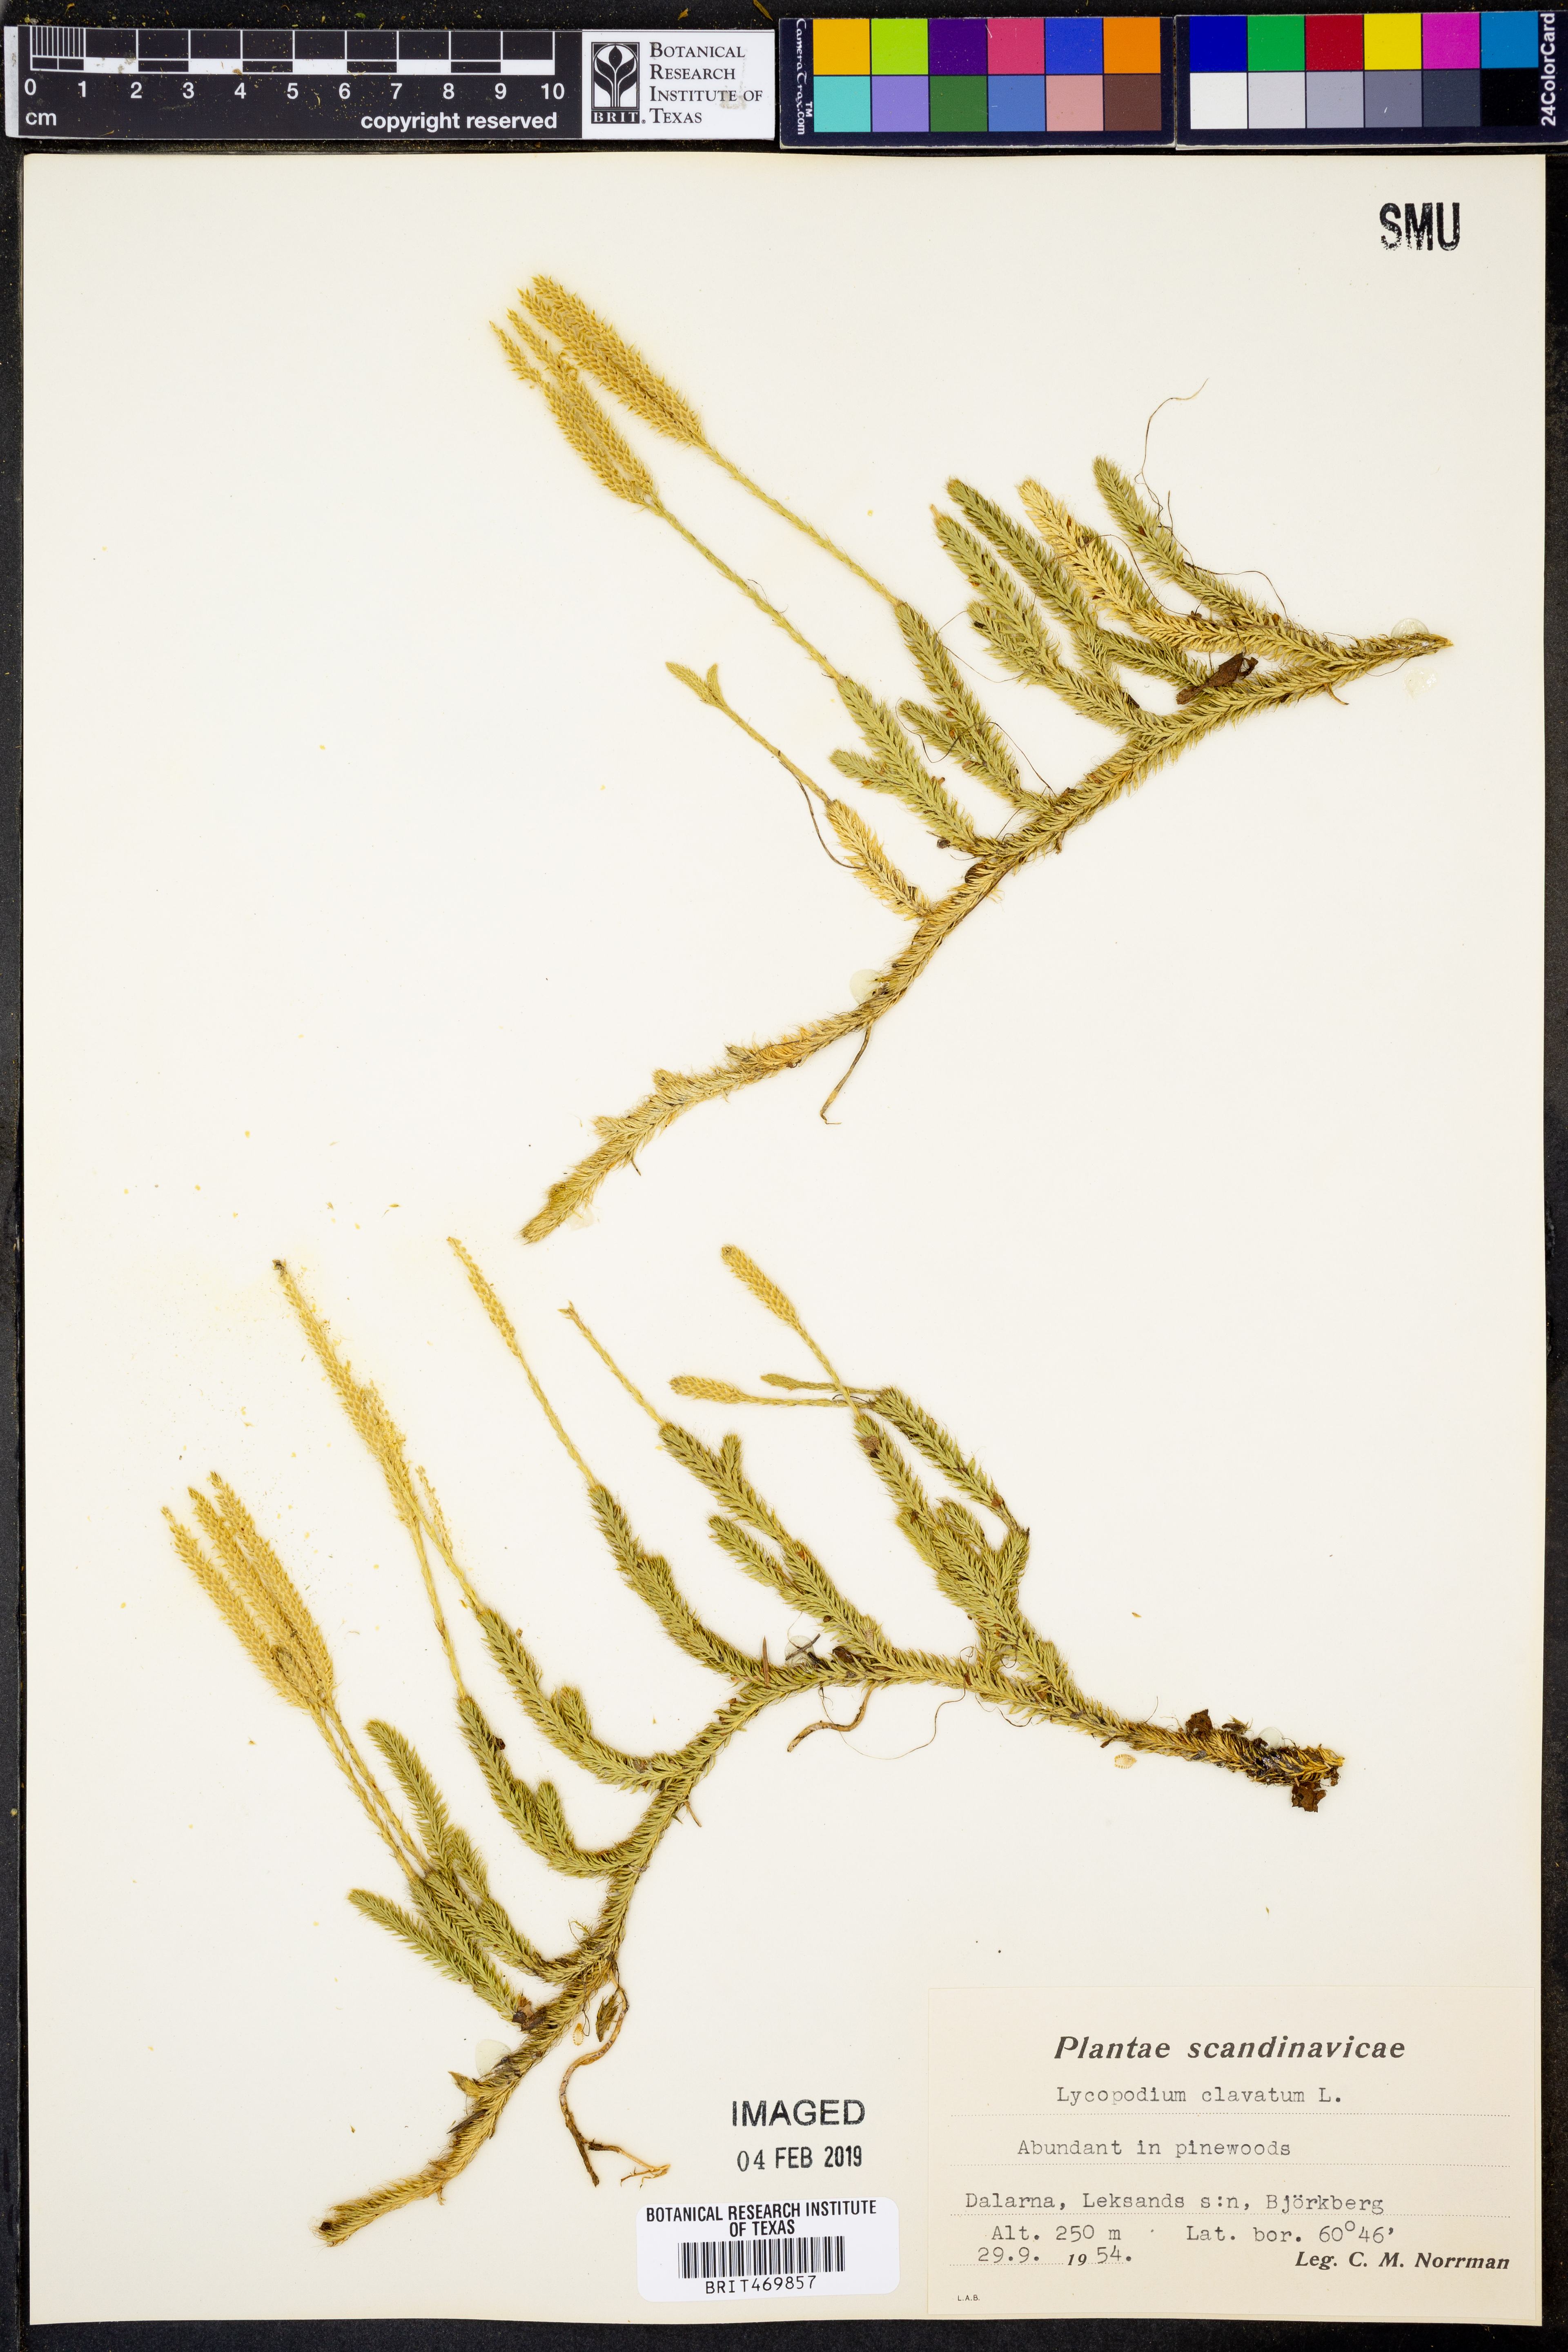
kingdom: Plantae
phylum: Tracheophyta
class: Lycopodiopsida
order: Lycopodiales
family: Lycopodiaceae
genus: Lycopodium
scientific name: Lycopodium clavatum
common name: Stag's-horn clubmoss
